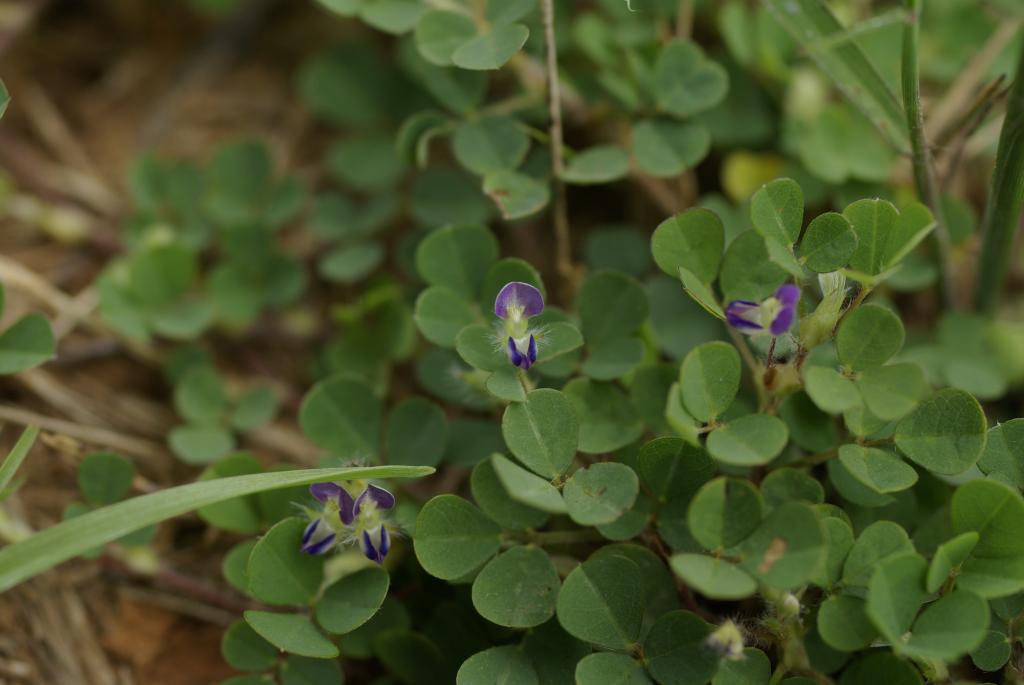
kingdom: Plantae
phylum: Tracheophyta
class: Magnoliopsida
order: Fabales
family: Fabaceae
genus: Grona
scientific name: Grona triflora
